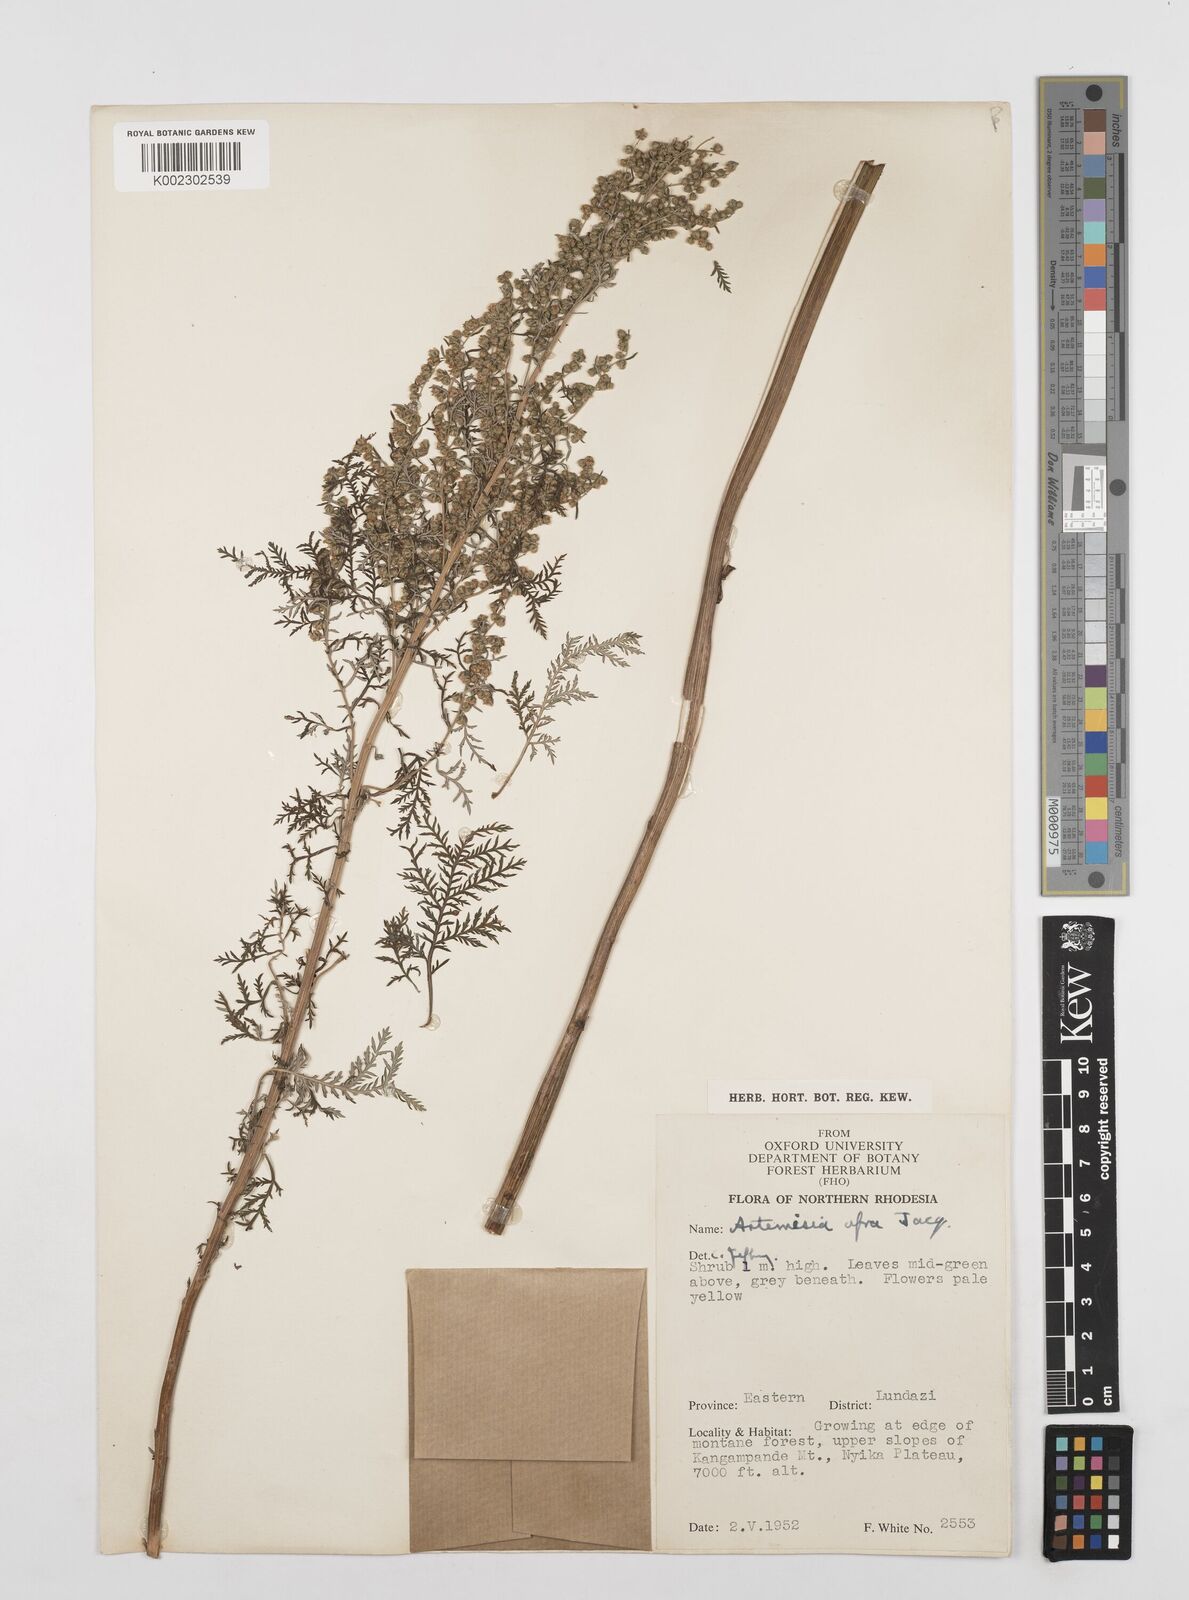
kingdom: Plantae
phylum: Tracheophyta
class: Magnoliopsida
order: Asterales
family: Asteraceae
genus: Artemisia
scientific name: Artemisia afra
